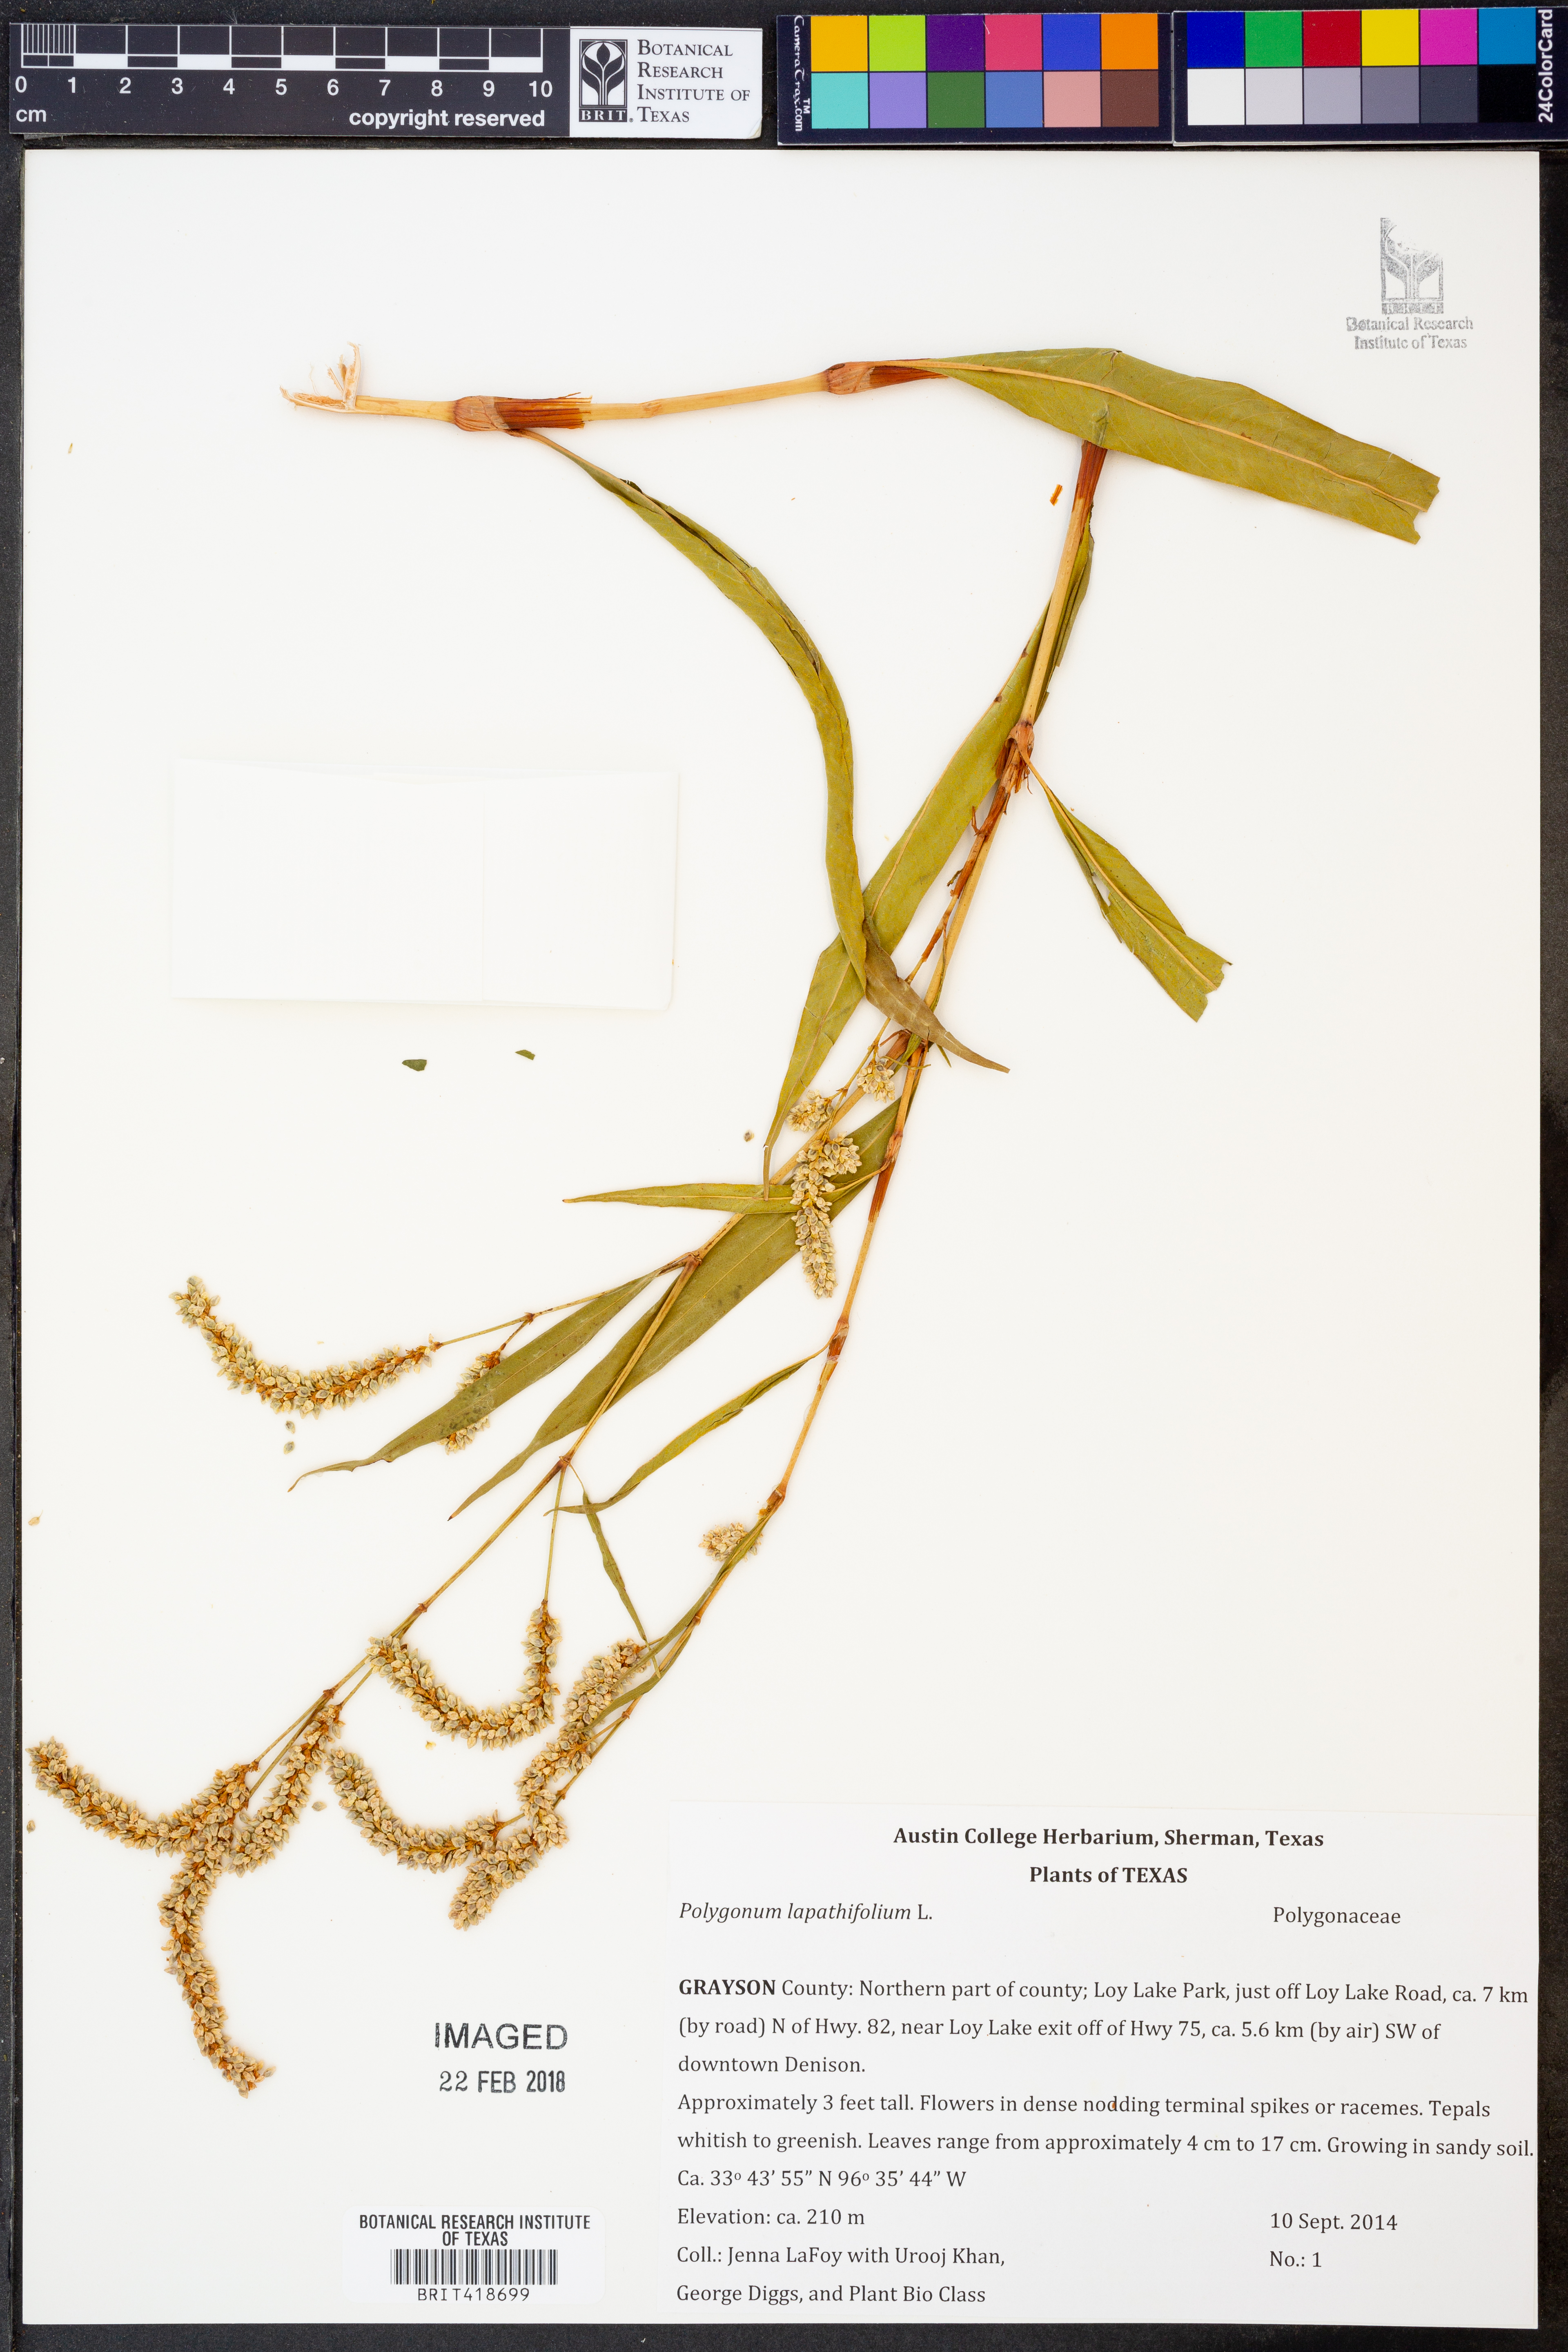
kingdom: Plantae
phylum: Tracheophyta
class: Magnoliopsida
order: Caryophyllales
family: Polygonaceae
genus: Persicaria
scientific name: Persicaria lapathifolia
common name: Curlytop knotweed
